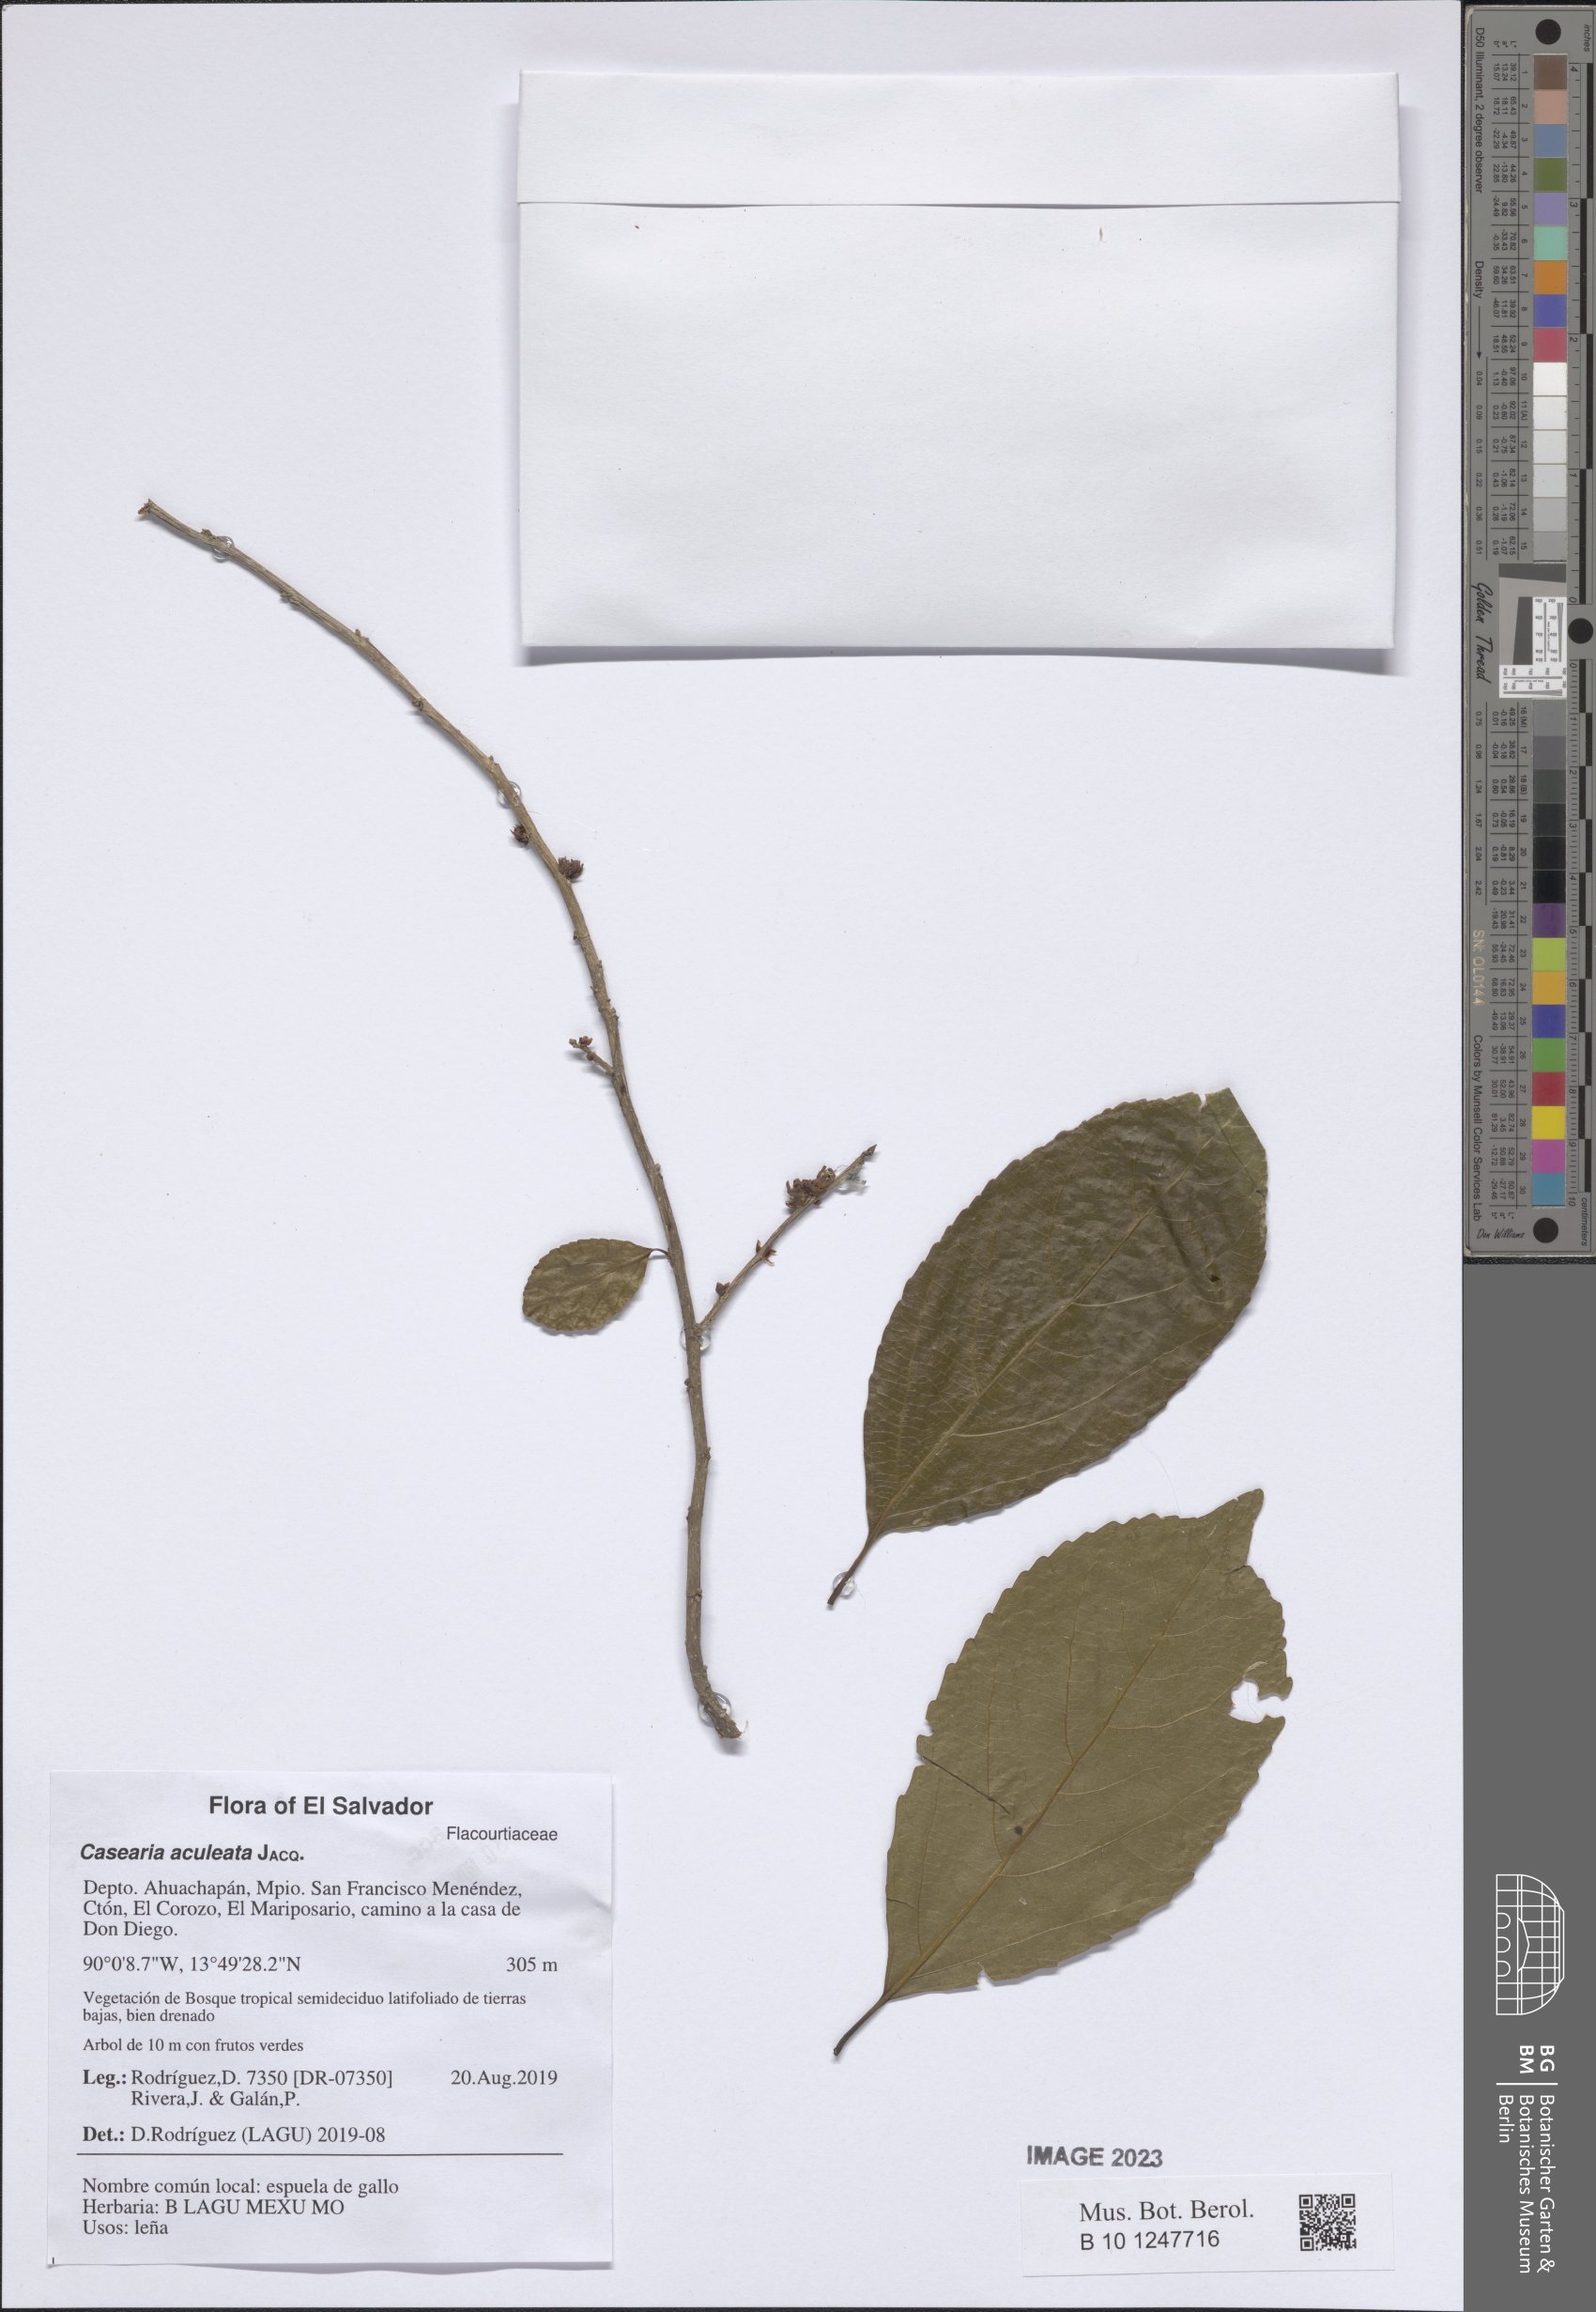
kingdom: Plantae
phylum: Tracheophyta
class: Magnoliopsida
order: Malpighiales
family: Salicaceae
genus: Casearia
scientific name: Casearia aculeata
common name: Cockspur
